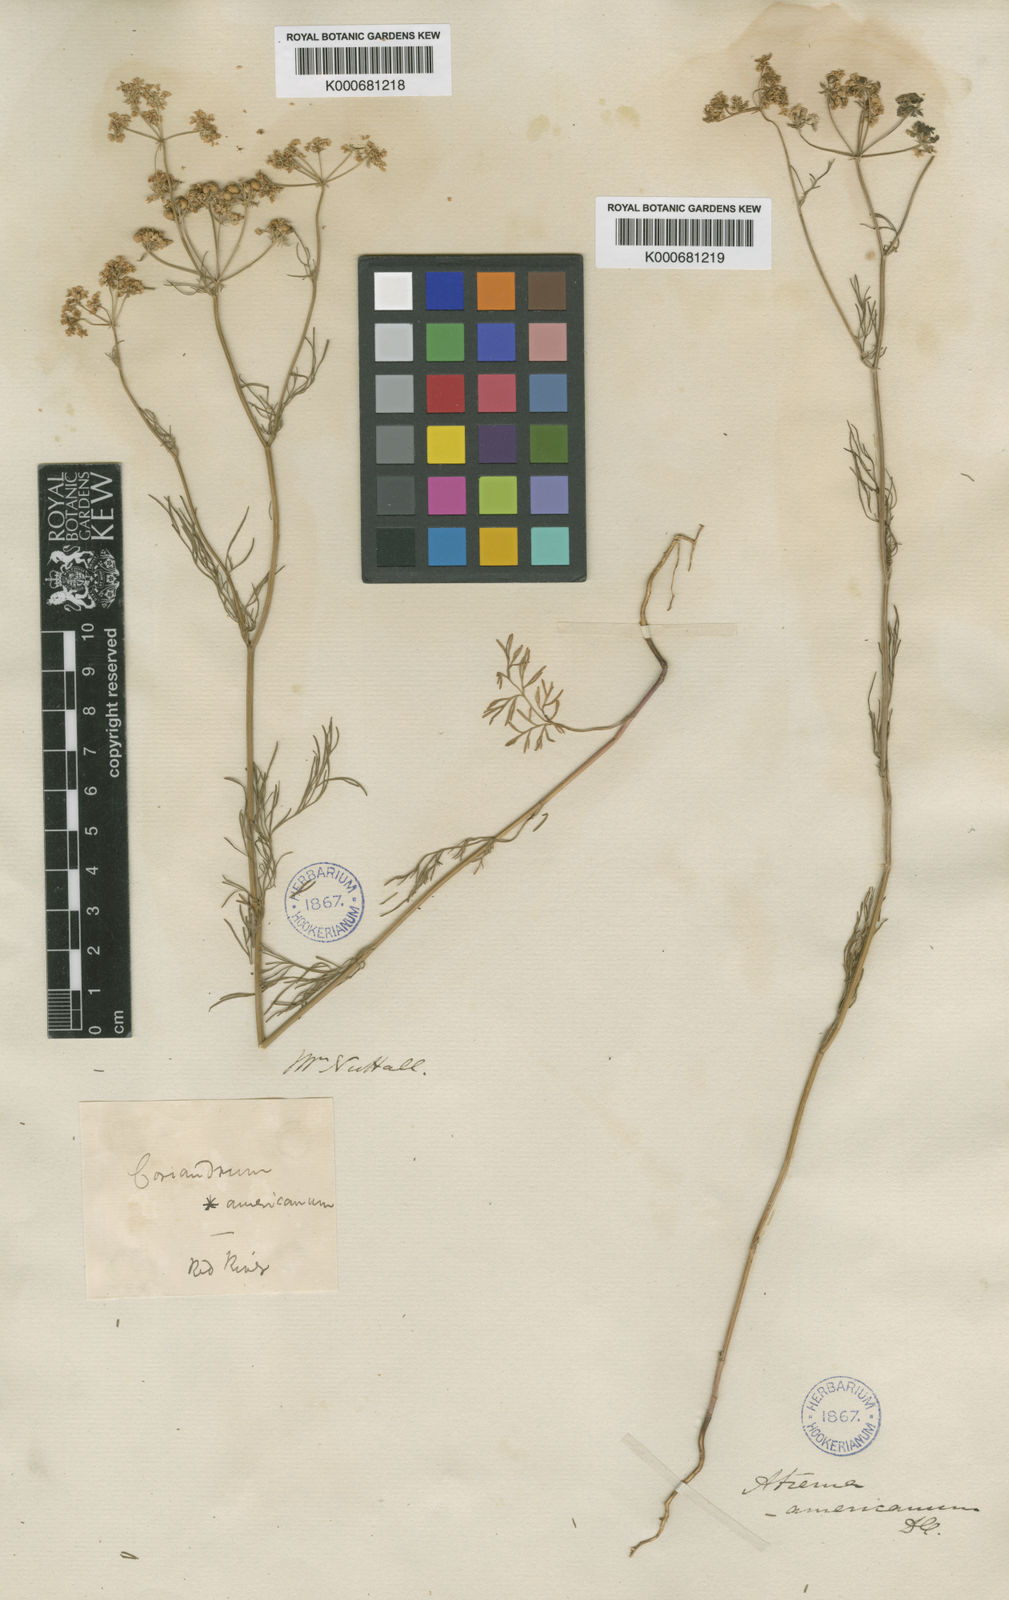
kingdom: Plantae
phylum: Tracheophyta
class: Magnoliopsida
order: Apiales
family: Apiaceae
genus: Atrema
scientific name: Atrema americanum
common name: Prairie-bishop
